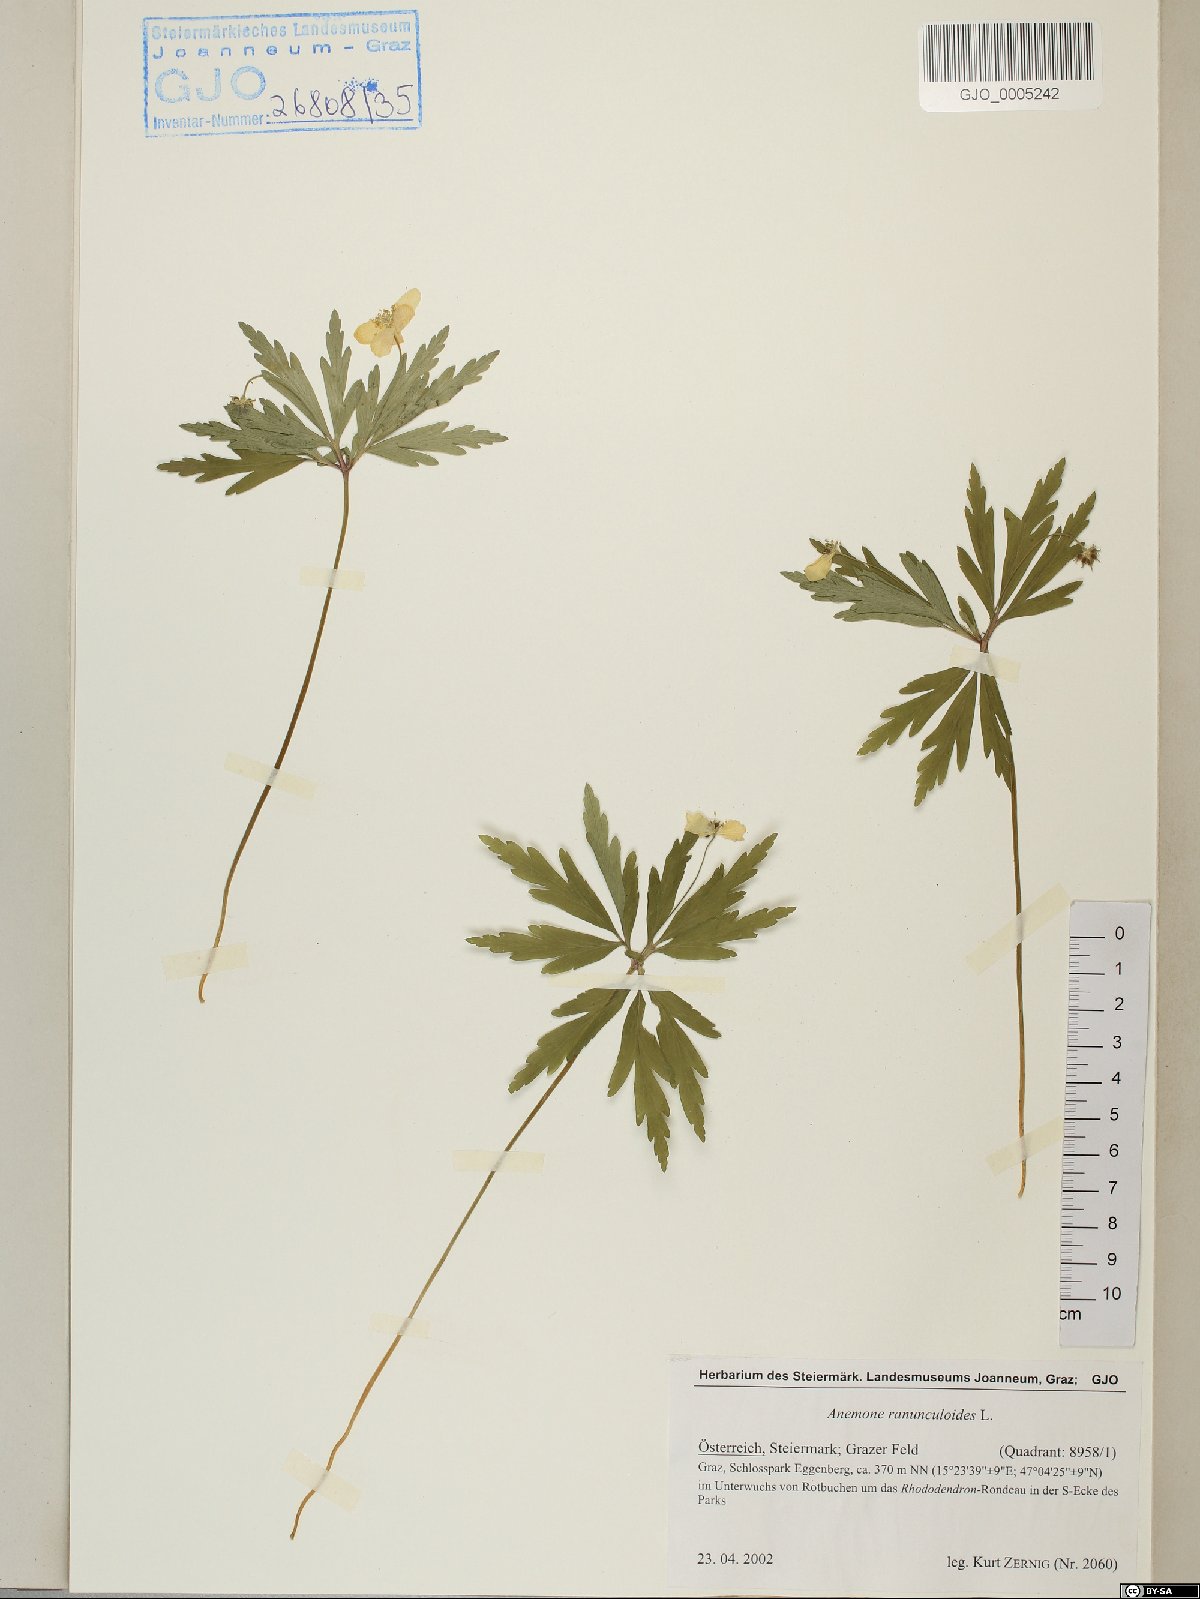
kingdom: Plantae
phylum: Tracheophyta
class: Magnoliopsida
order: Ranunculales
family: Ranunculaceae
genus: Anemone
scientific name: Anemone ranunculoides
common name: Yellow anemone
